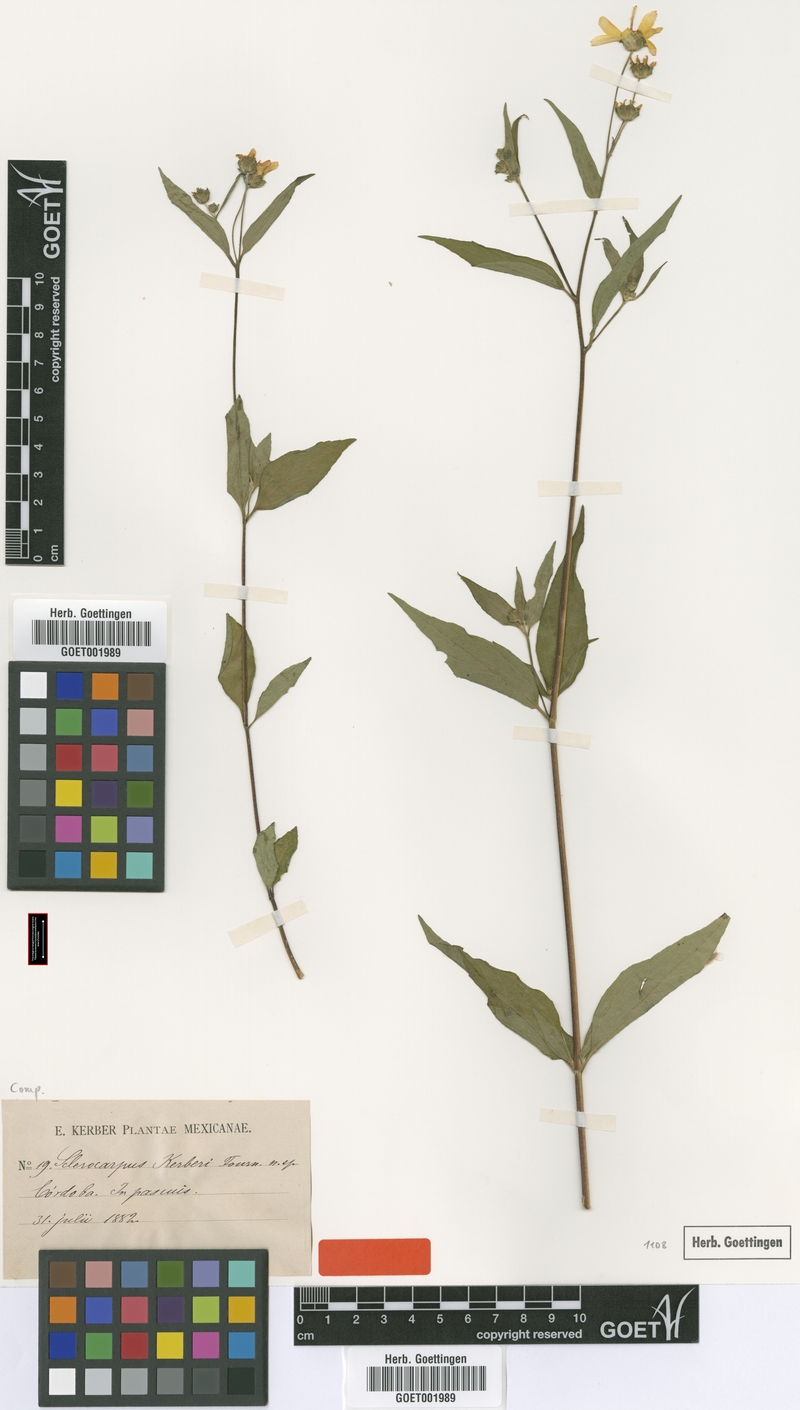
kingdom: Plantae
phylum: Tracheophyta
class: Magnoliopsida
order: Asterales
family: Asteraceae
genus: Aldama
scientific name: Aldama dentata
